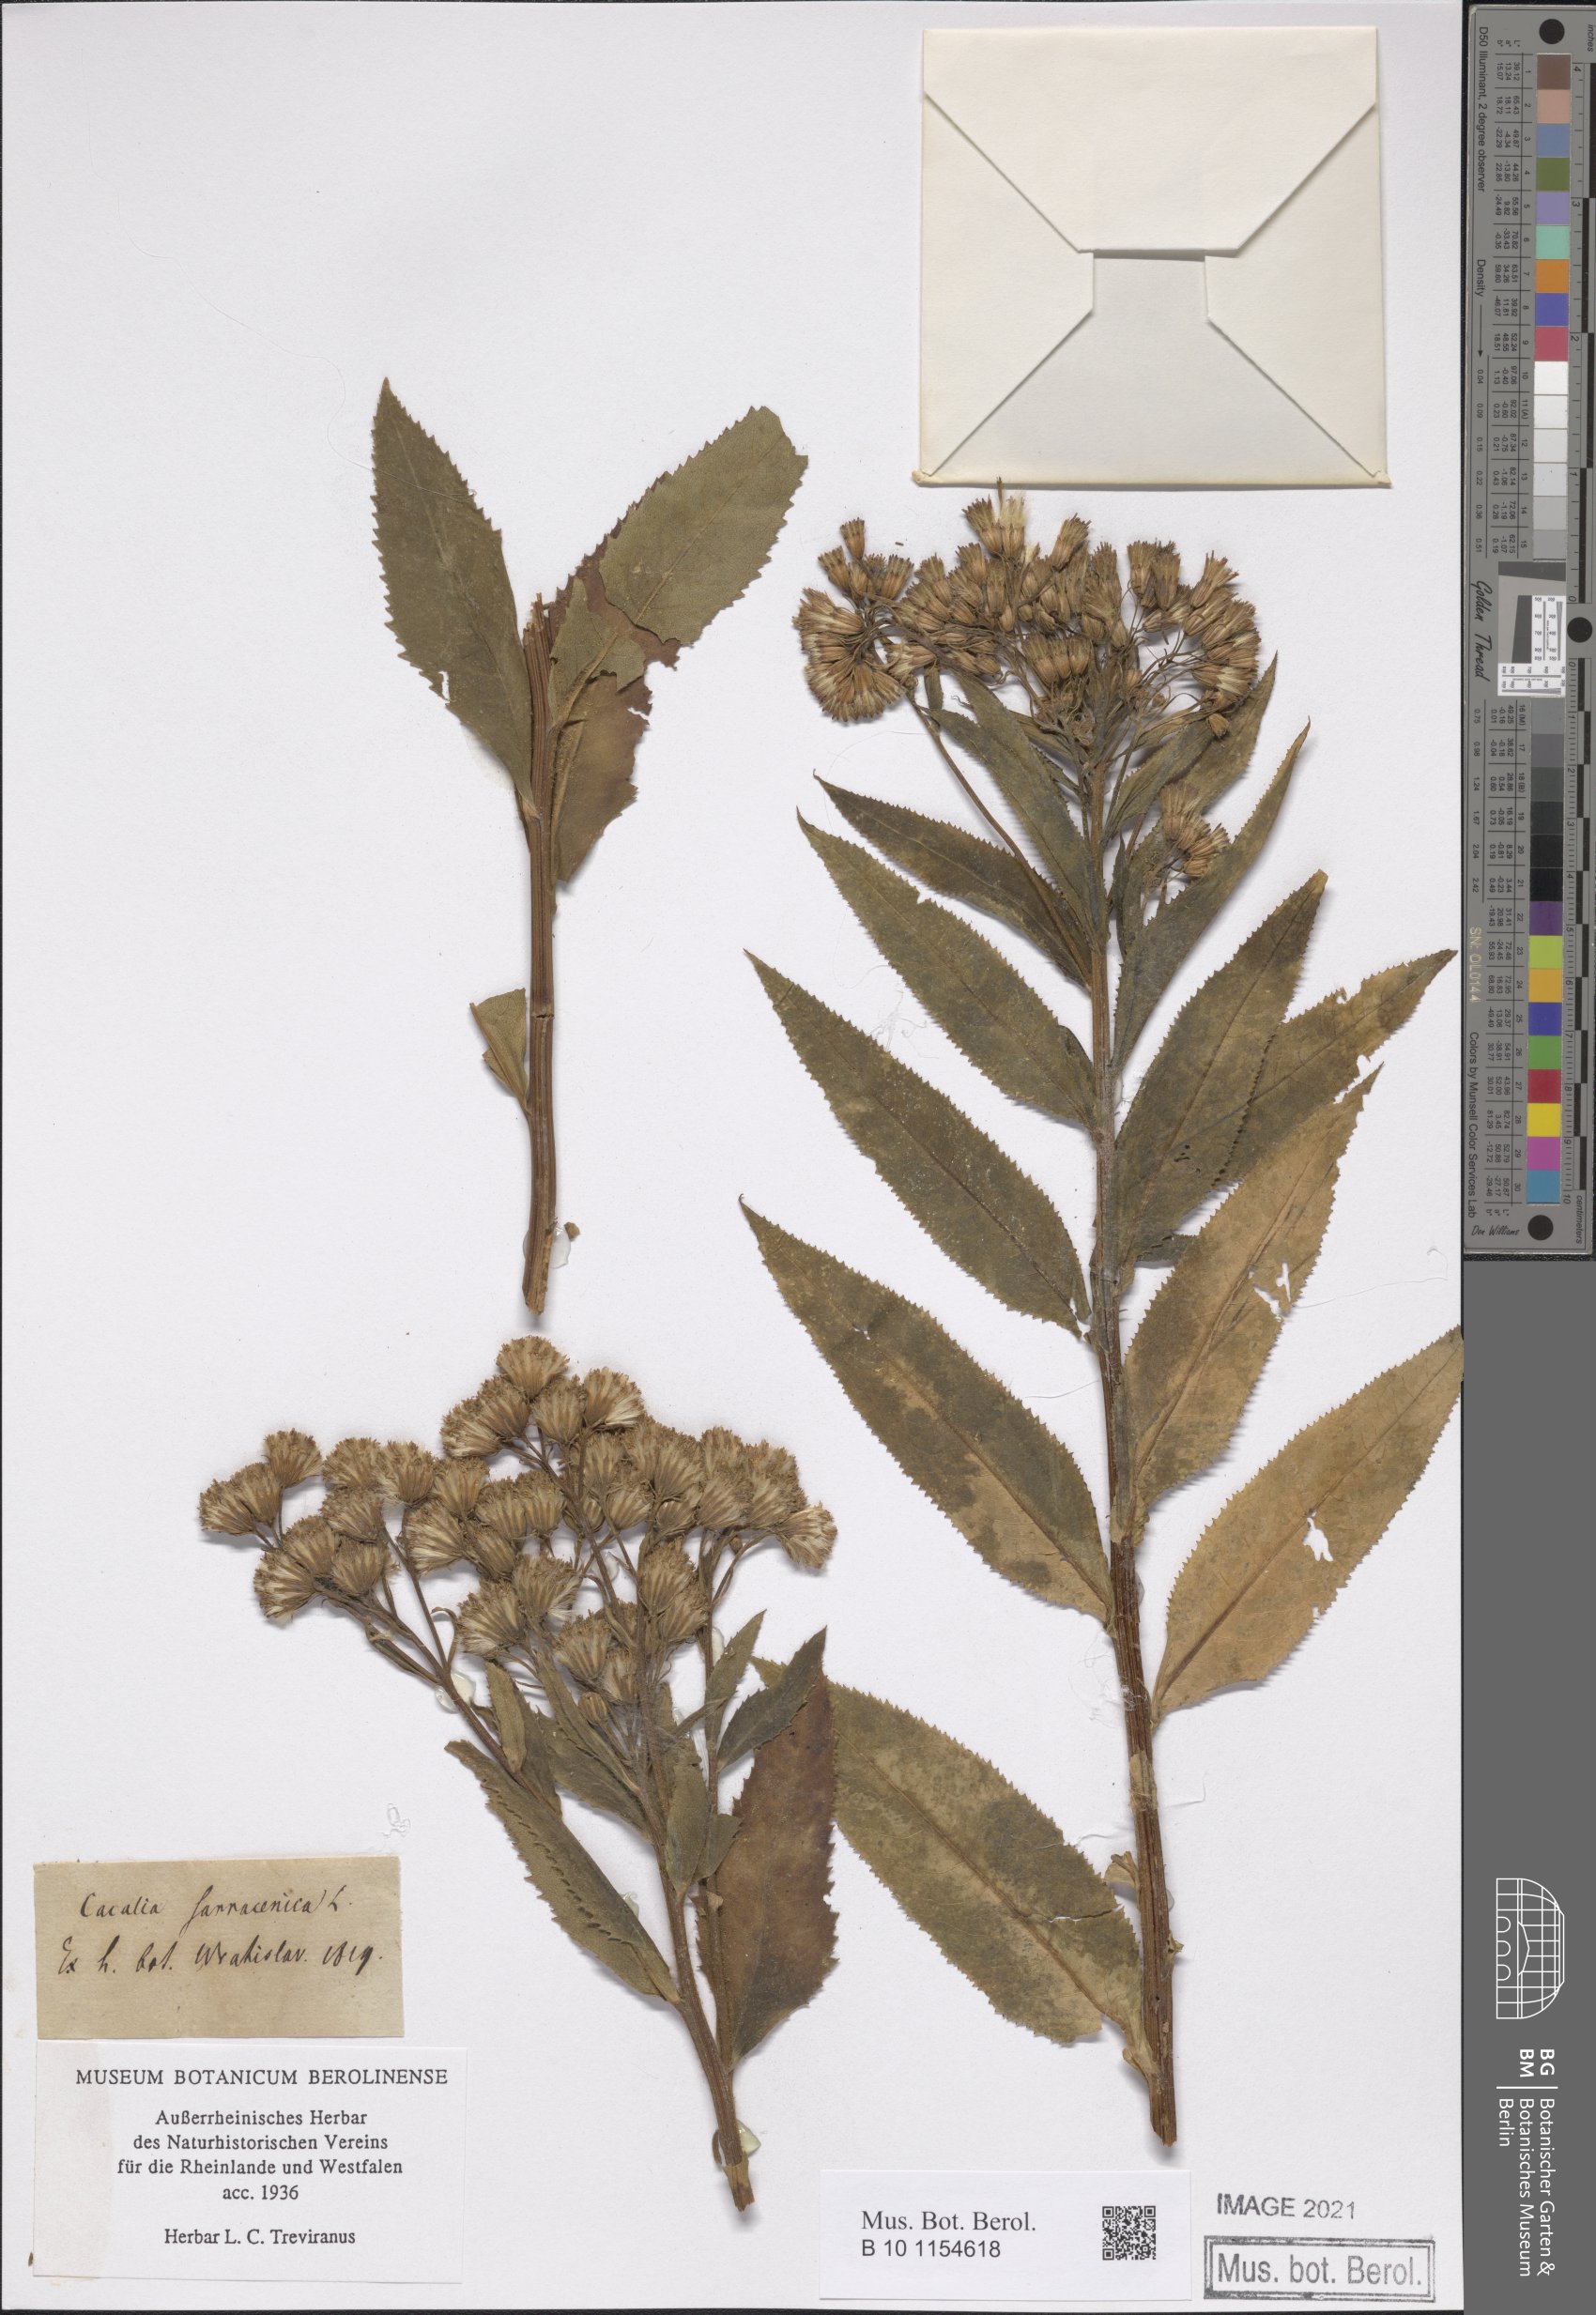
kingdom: Plantae
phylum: Tracheophyta
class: Magnoliopsida
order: Asterales
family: Asteraceae
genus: Senecio
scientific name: Senecio cacaliaster
